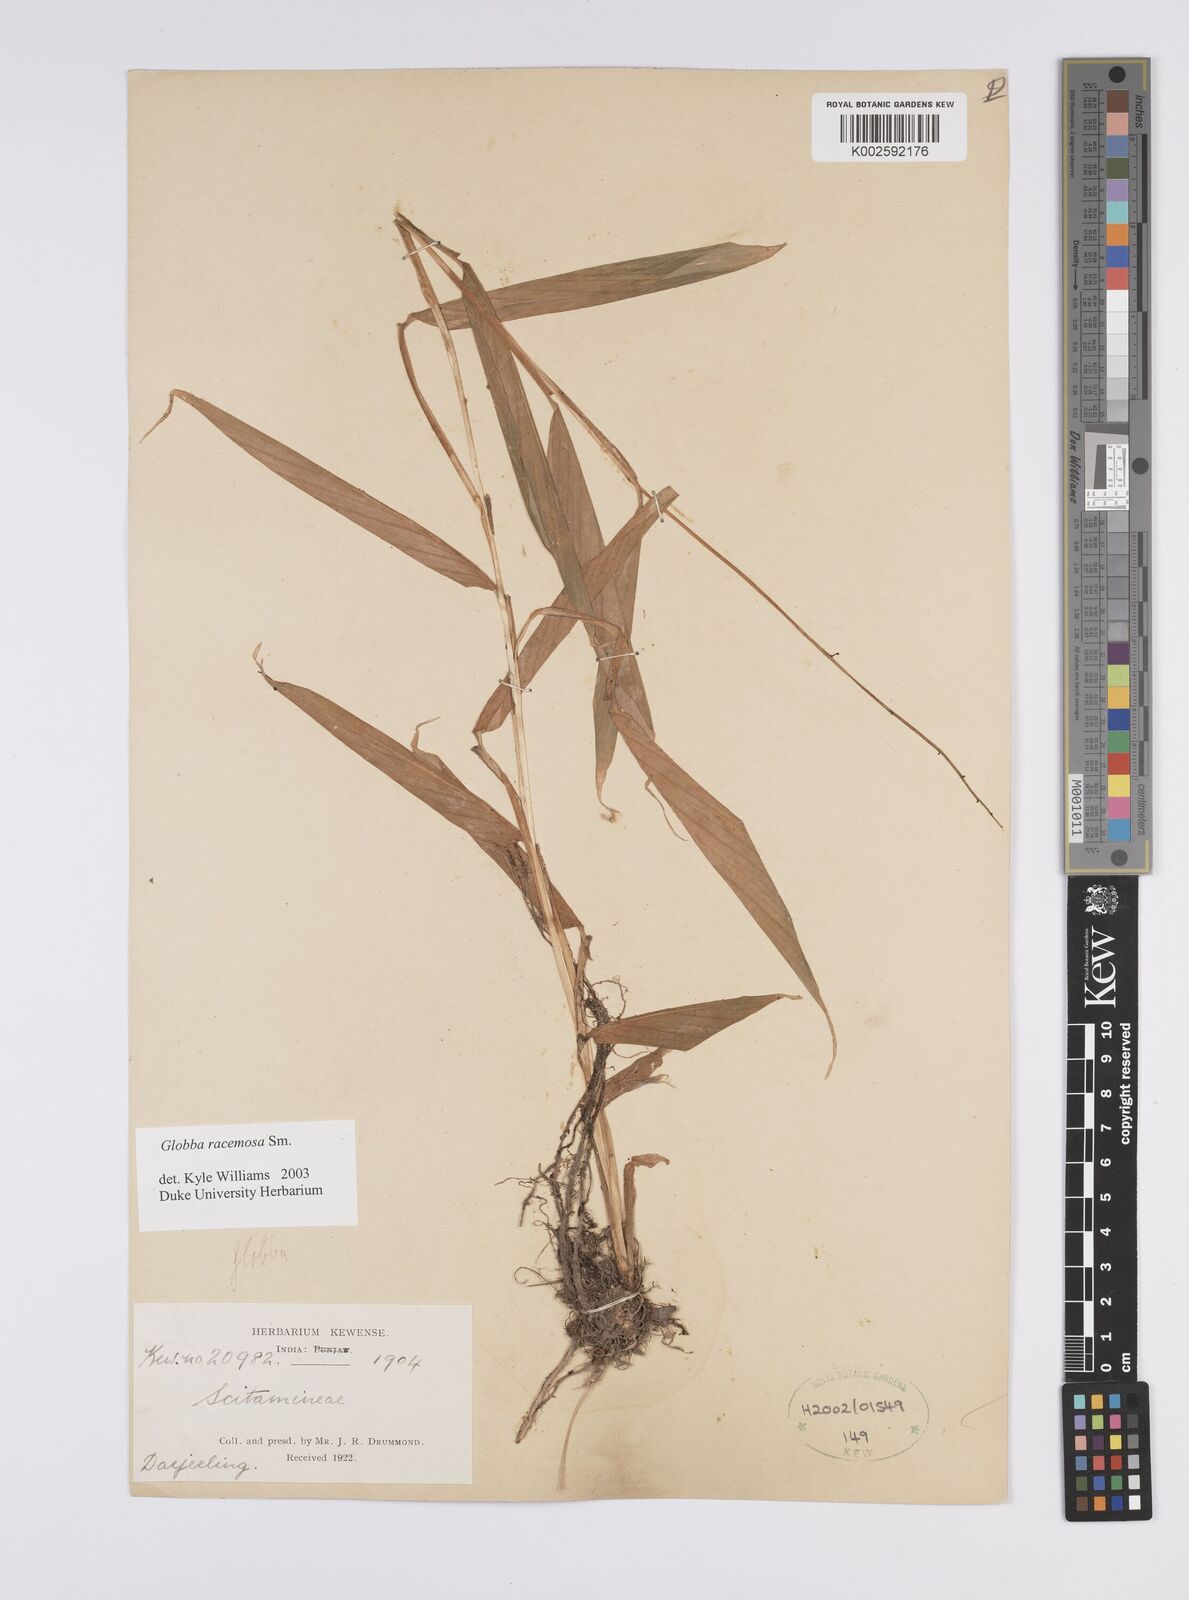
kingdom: Plantae
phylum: Tracheophyta
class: Liliopsida
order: Zingiberales
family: Zingiberaceae
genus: Globba
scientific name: Globba racemosa
